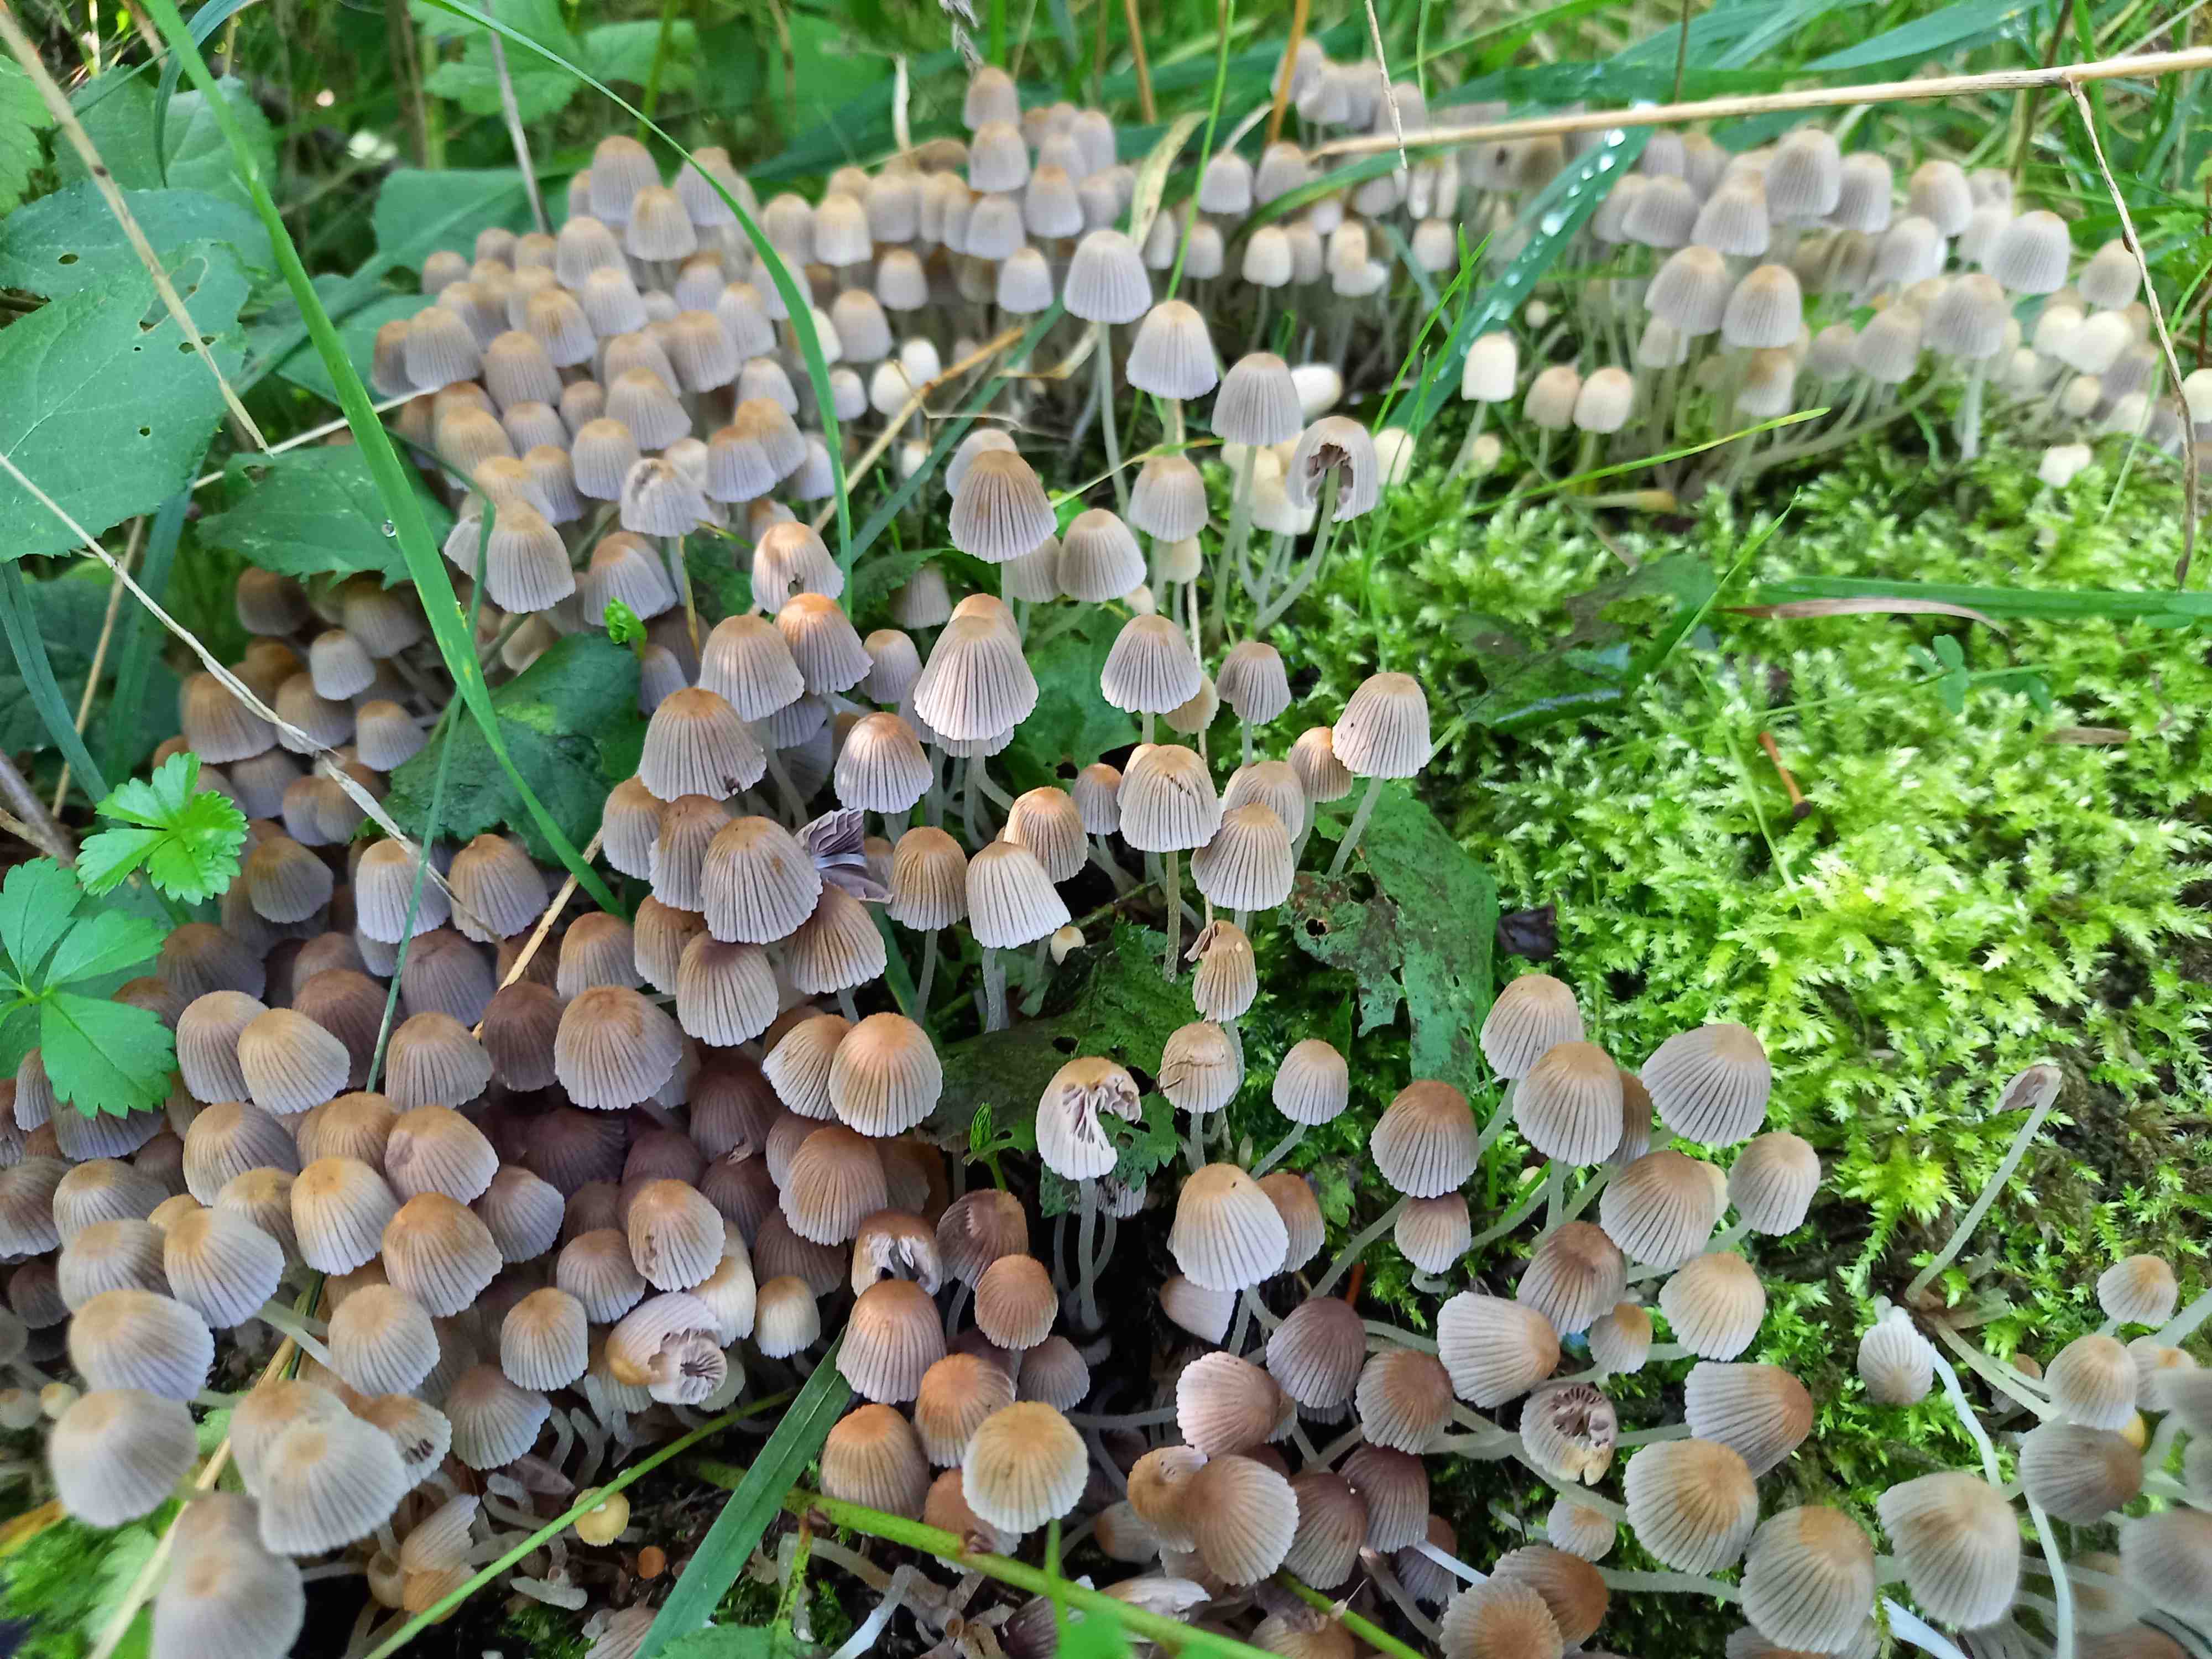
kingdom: Fungi
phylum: Basidiomycota
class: Agaricomycetes
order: Agaricales
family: Psathyrellaceae
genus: Coprinellus
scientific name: Coprinellus disseminatus
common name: bredsået blækhat
